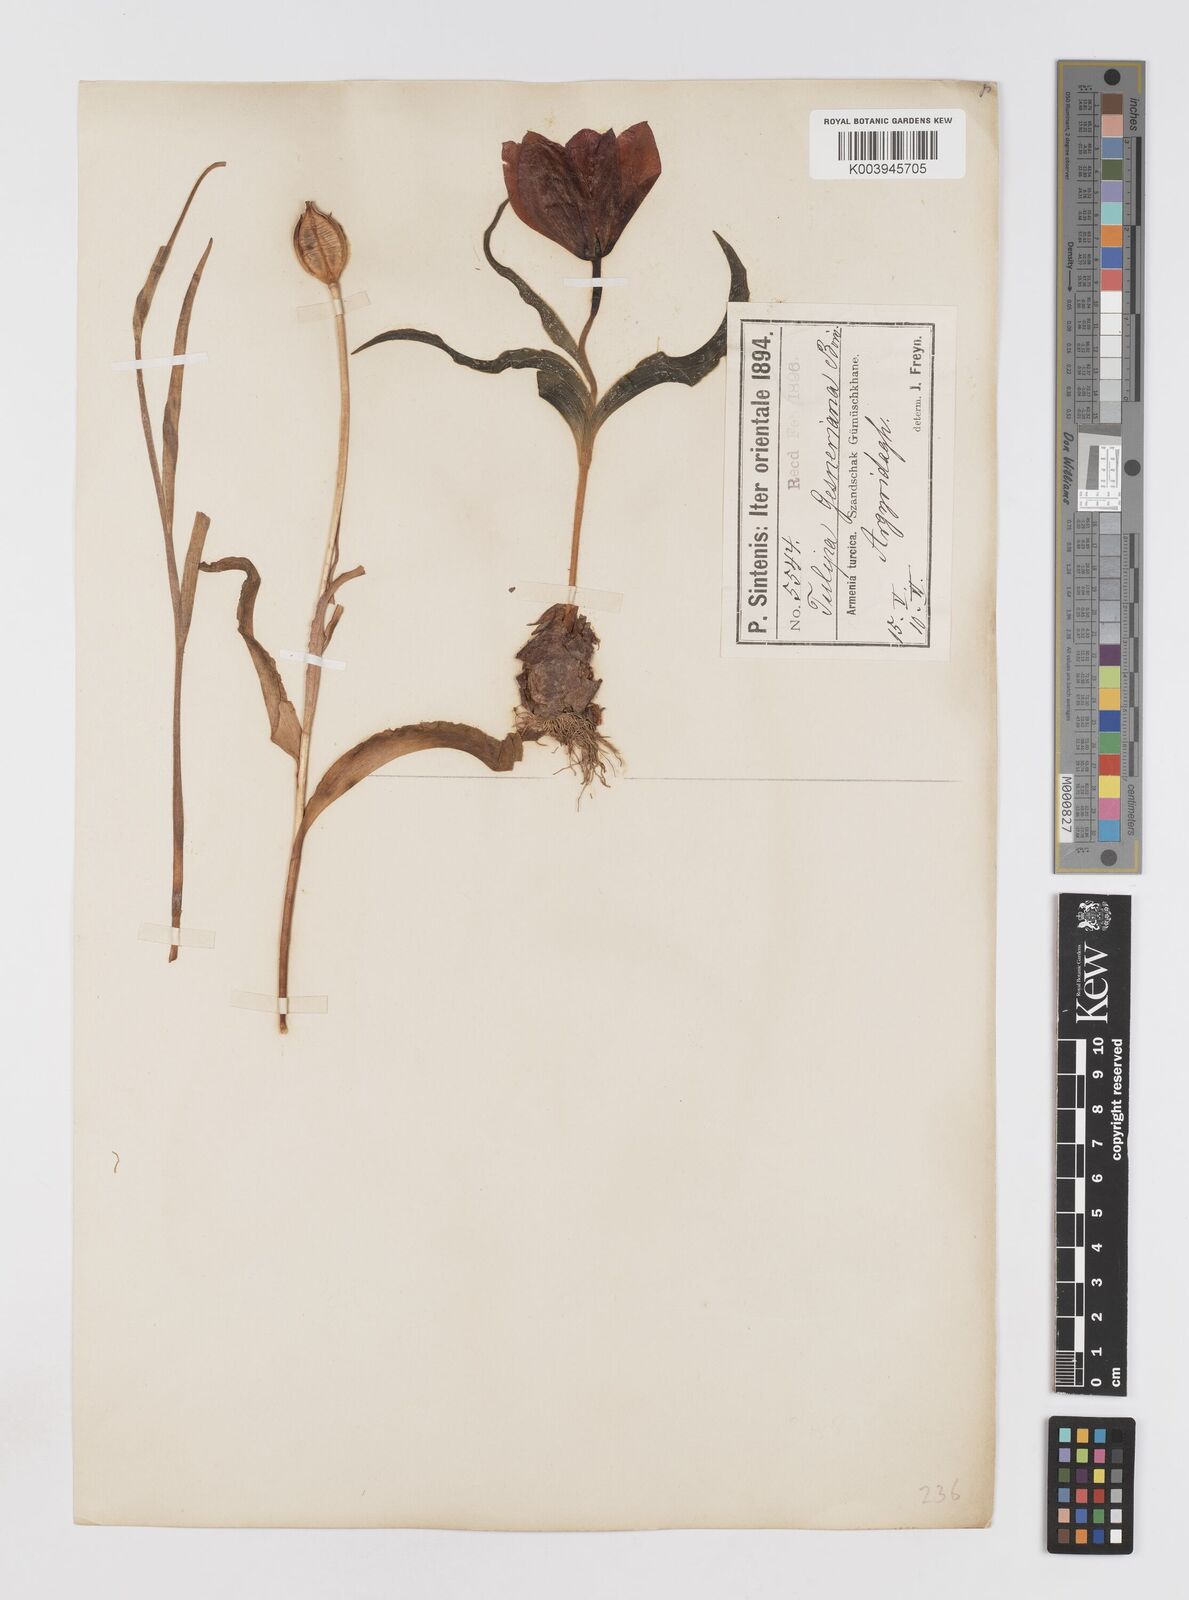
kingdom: Plantae
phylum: Tracheophyta
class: Liliopsida
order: Liliales
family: Liliaceae
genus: Tulipa
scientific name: Tulipa armena
